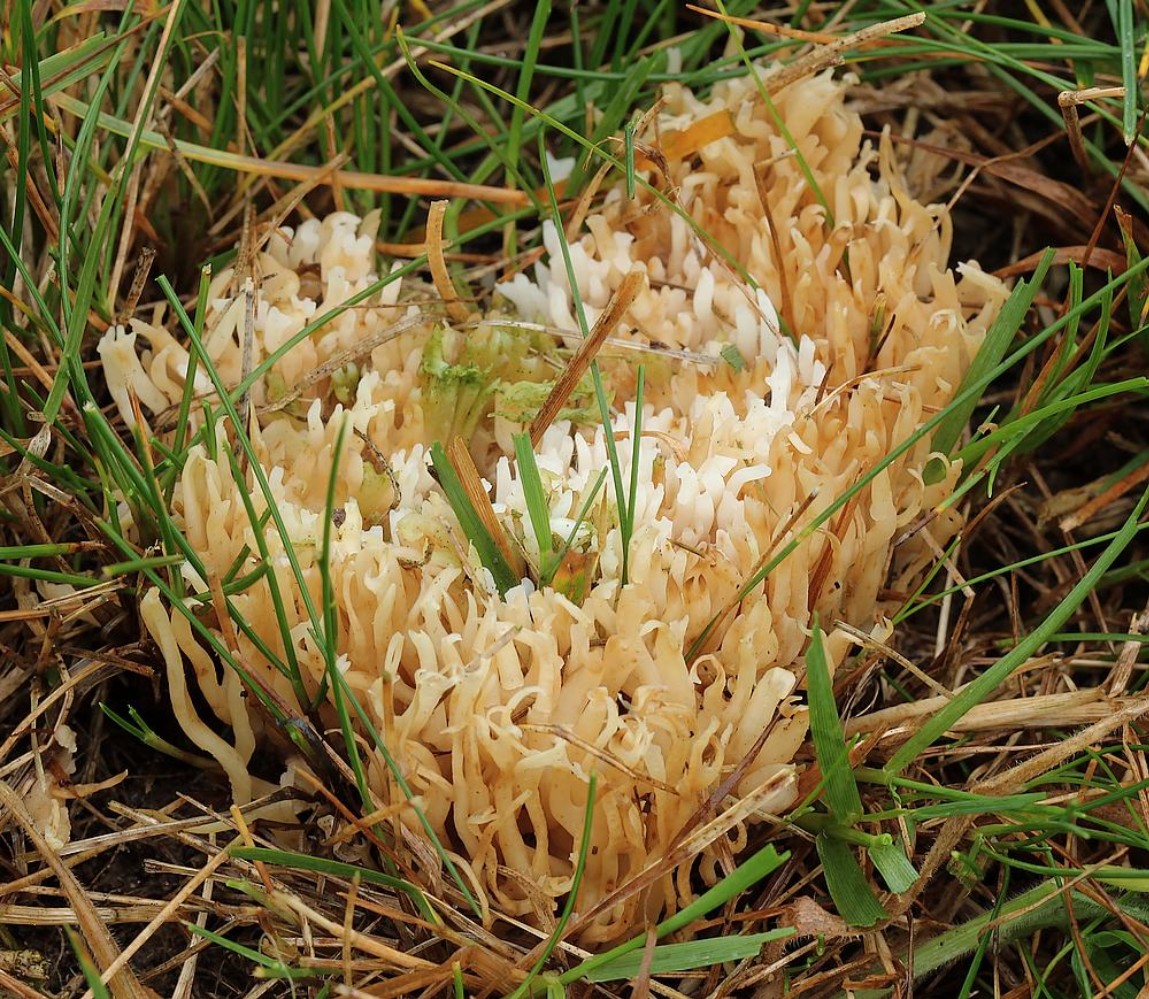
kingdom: Fungi
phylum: Basidiomycota
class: Agaricomycetes
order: Agaricales
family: Clavariaceae
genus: Ramariopsis
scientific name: Ramariopsis kunzei
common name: mangegrenet køllesvamp
